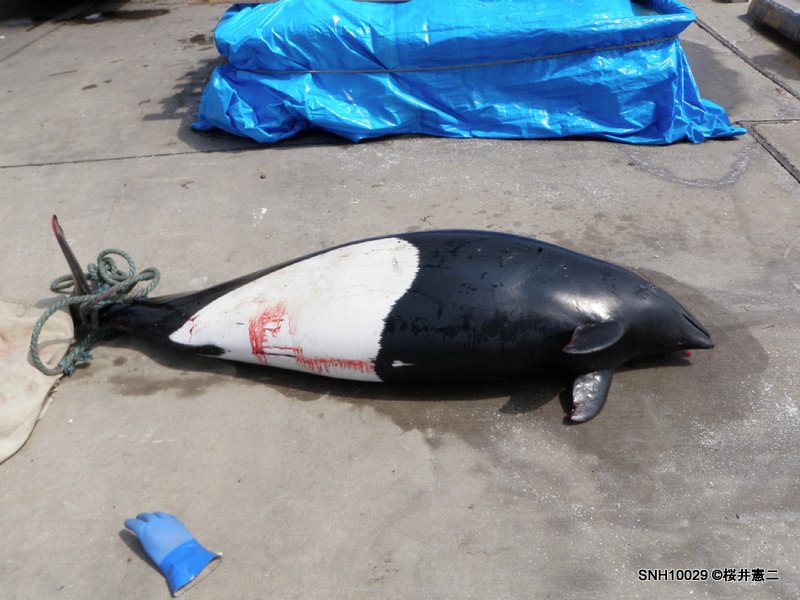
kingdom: Animalia
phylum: Chordata
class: Mammalia
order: Cetacea
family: Phocoenidae
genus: Phocoenoides
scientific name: Phocoenoides dalli
